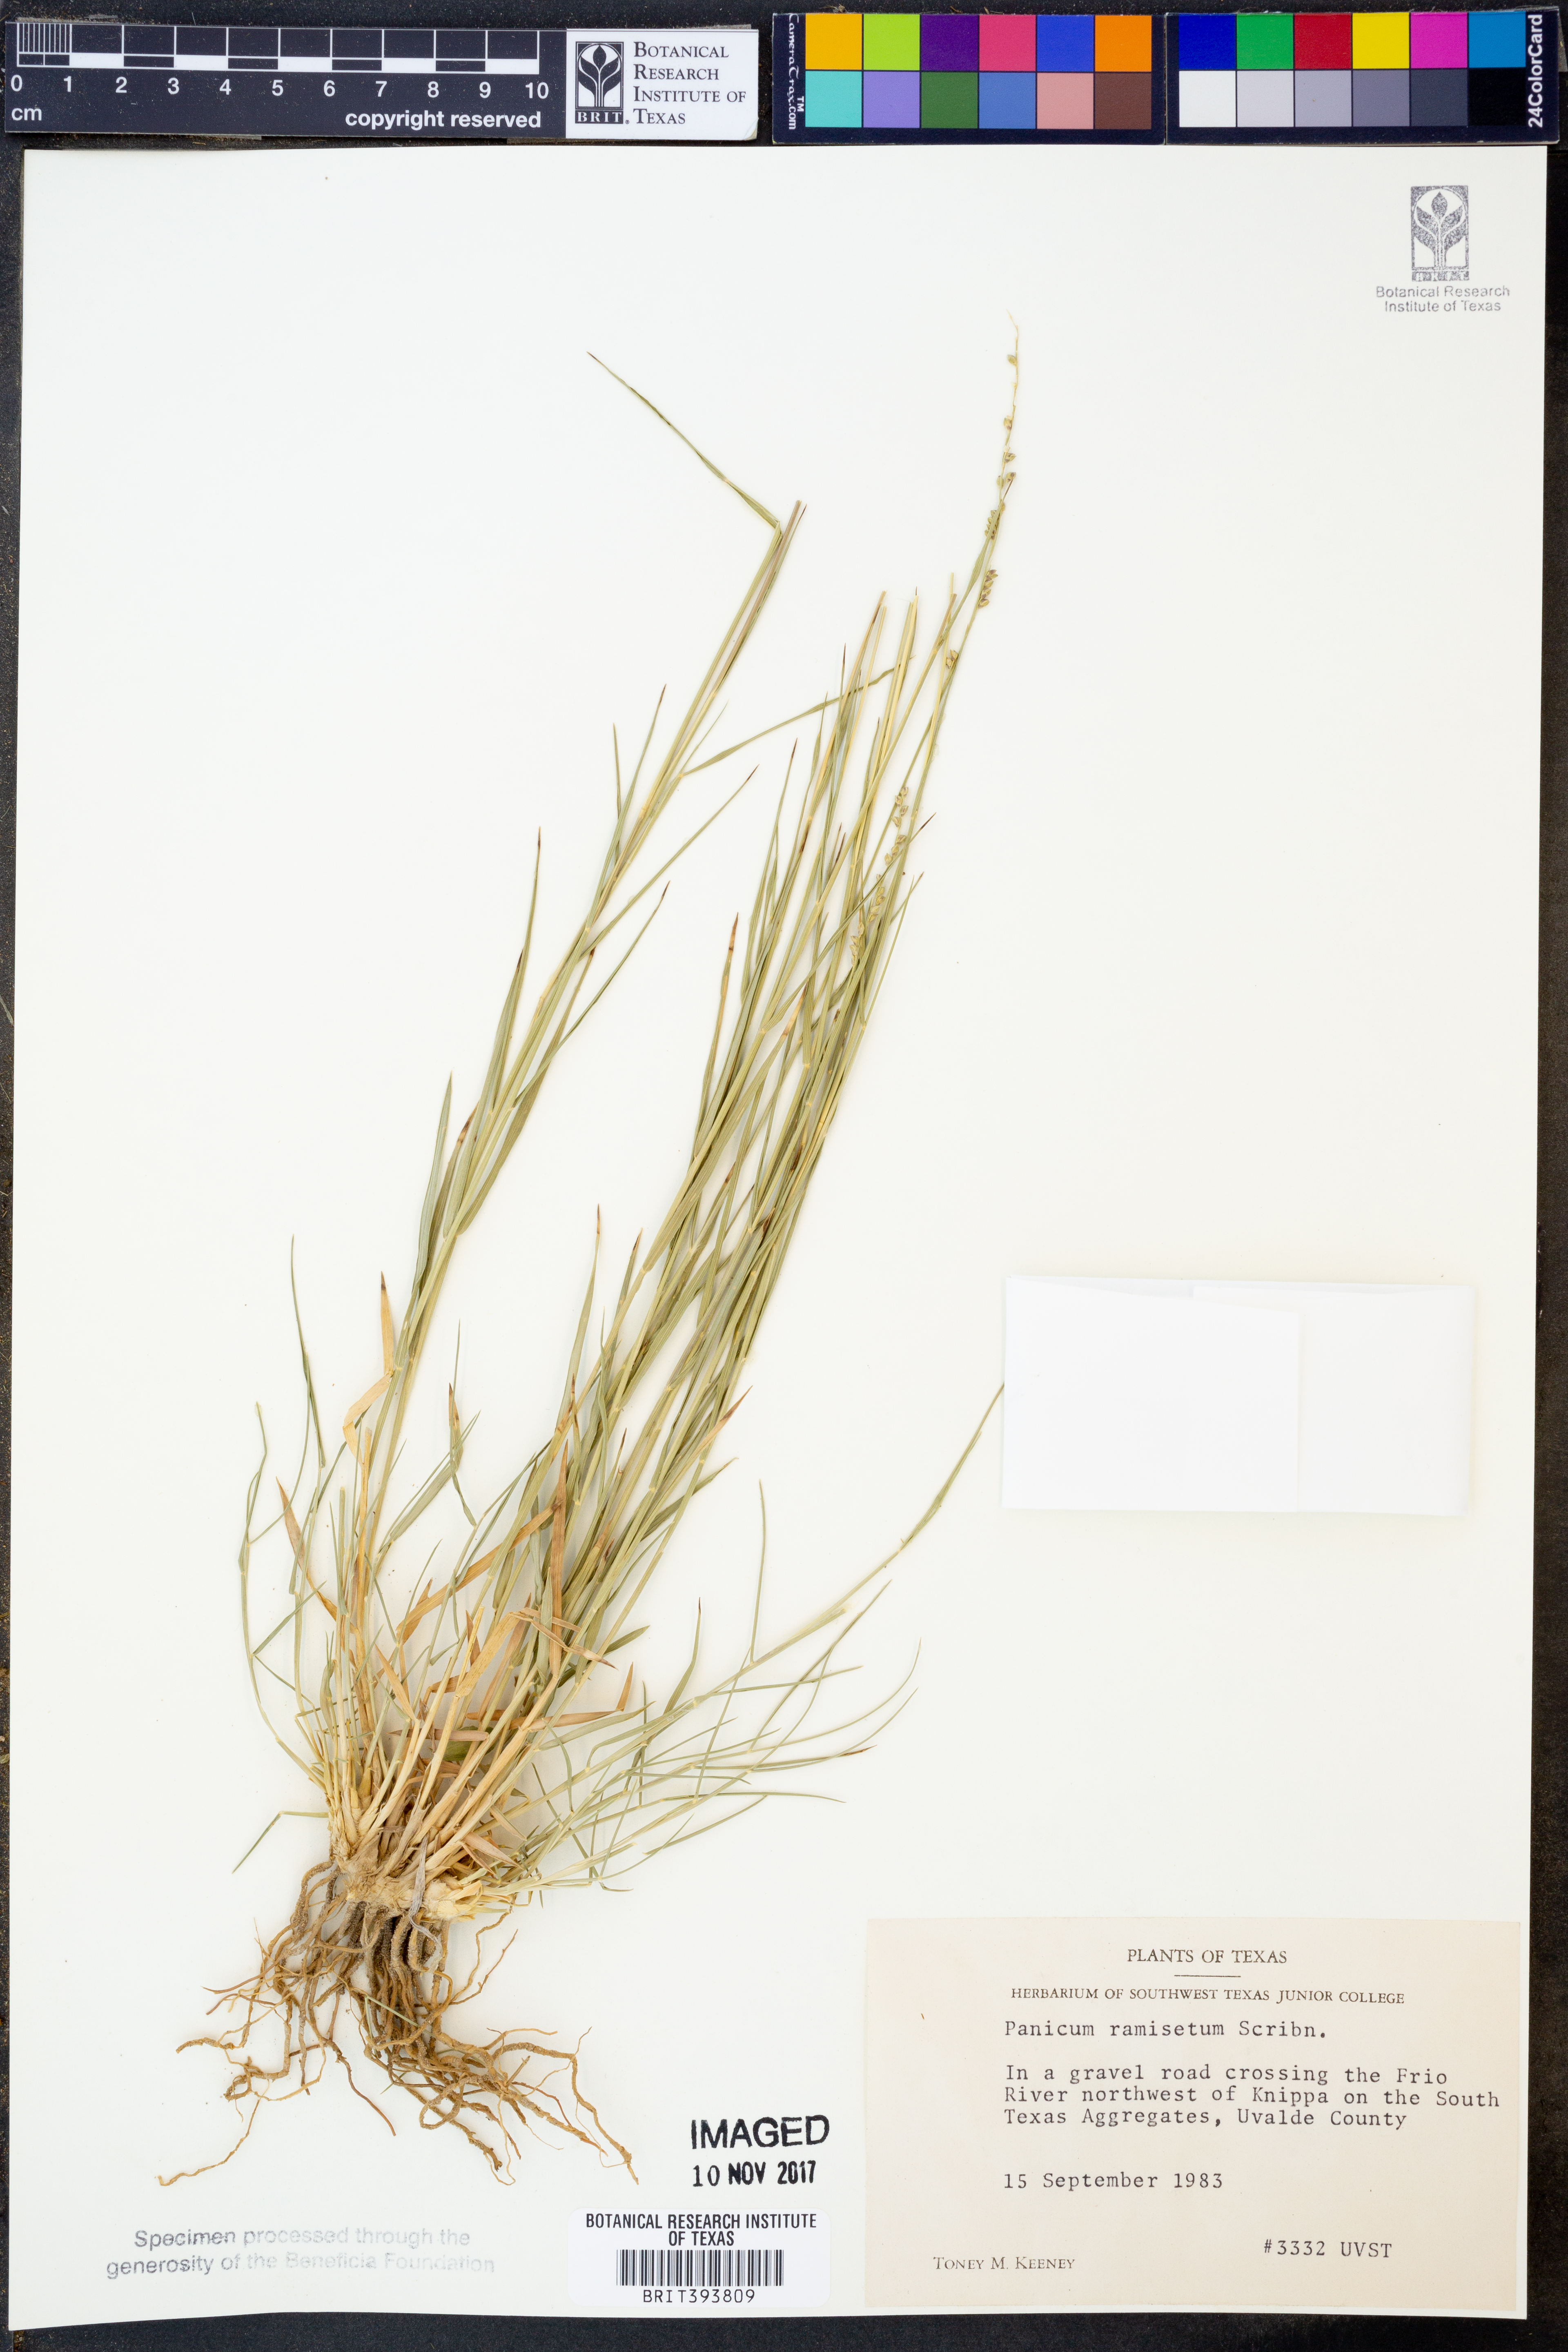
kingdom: Plantae
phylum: Tracheophyta
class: Liliopsida
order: Poales
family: Poaceae
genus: Setaria
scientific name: Setaria reverchonii
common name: Reverchon's bristle grass
